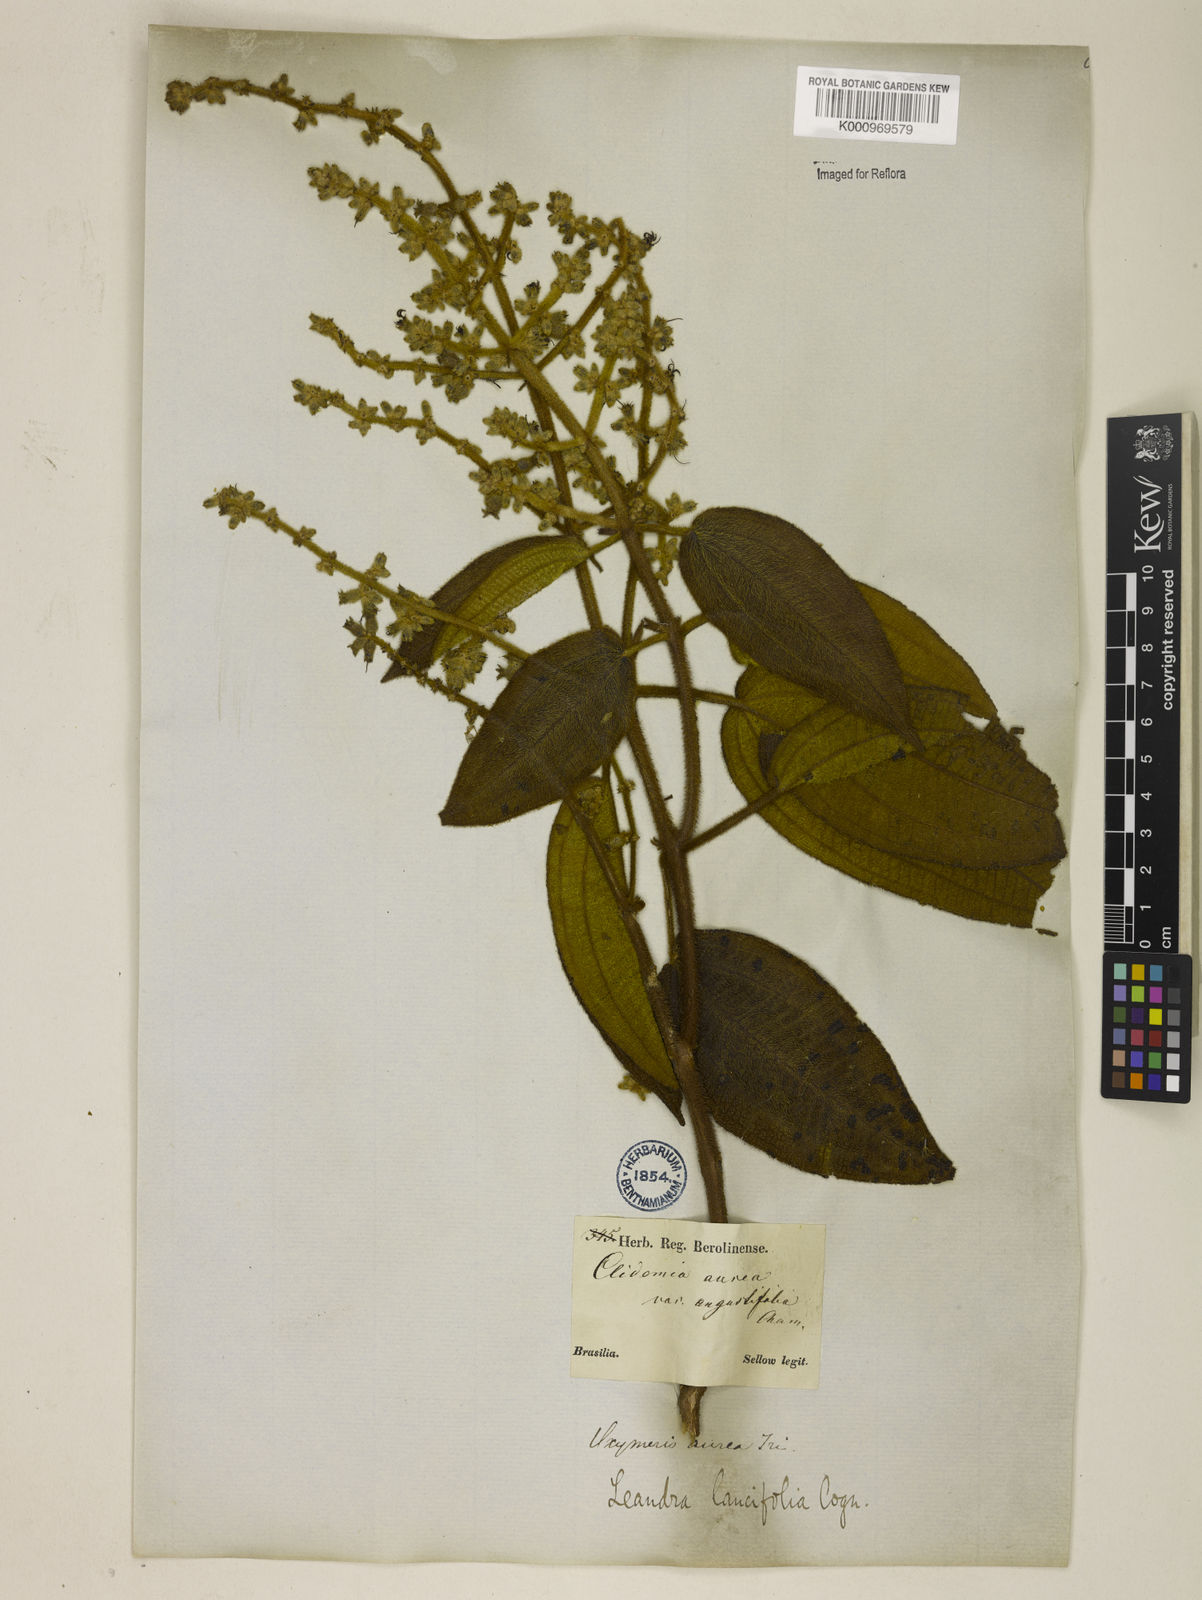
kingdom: Plantae
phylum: Tracheophyta
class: Magnoliopsida
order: Myrtales
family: Melastomataceae
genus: Miconia
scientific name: Miconia
